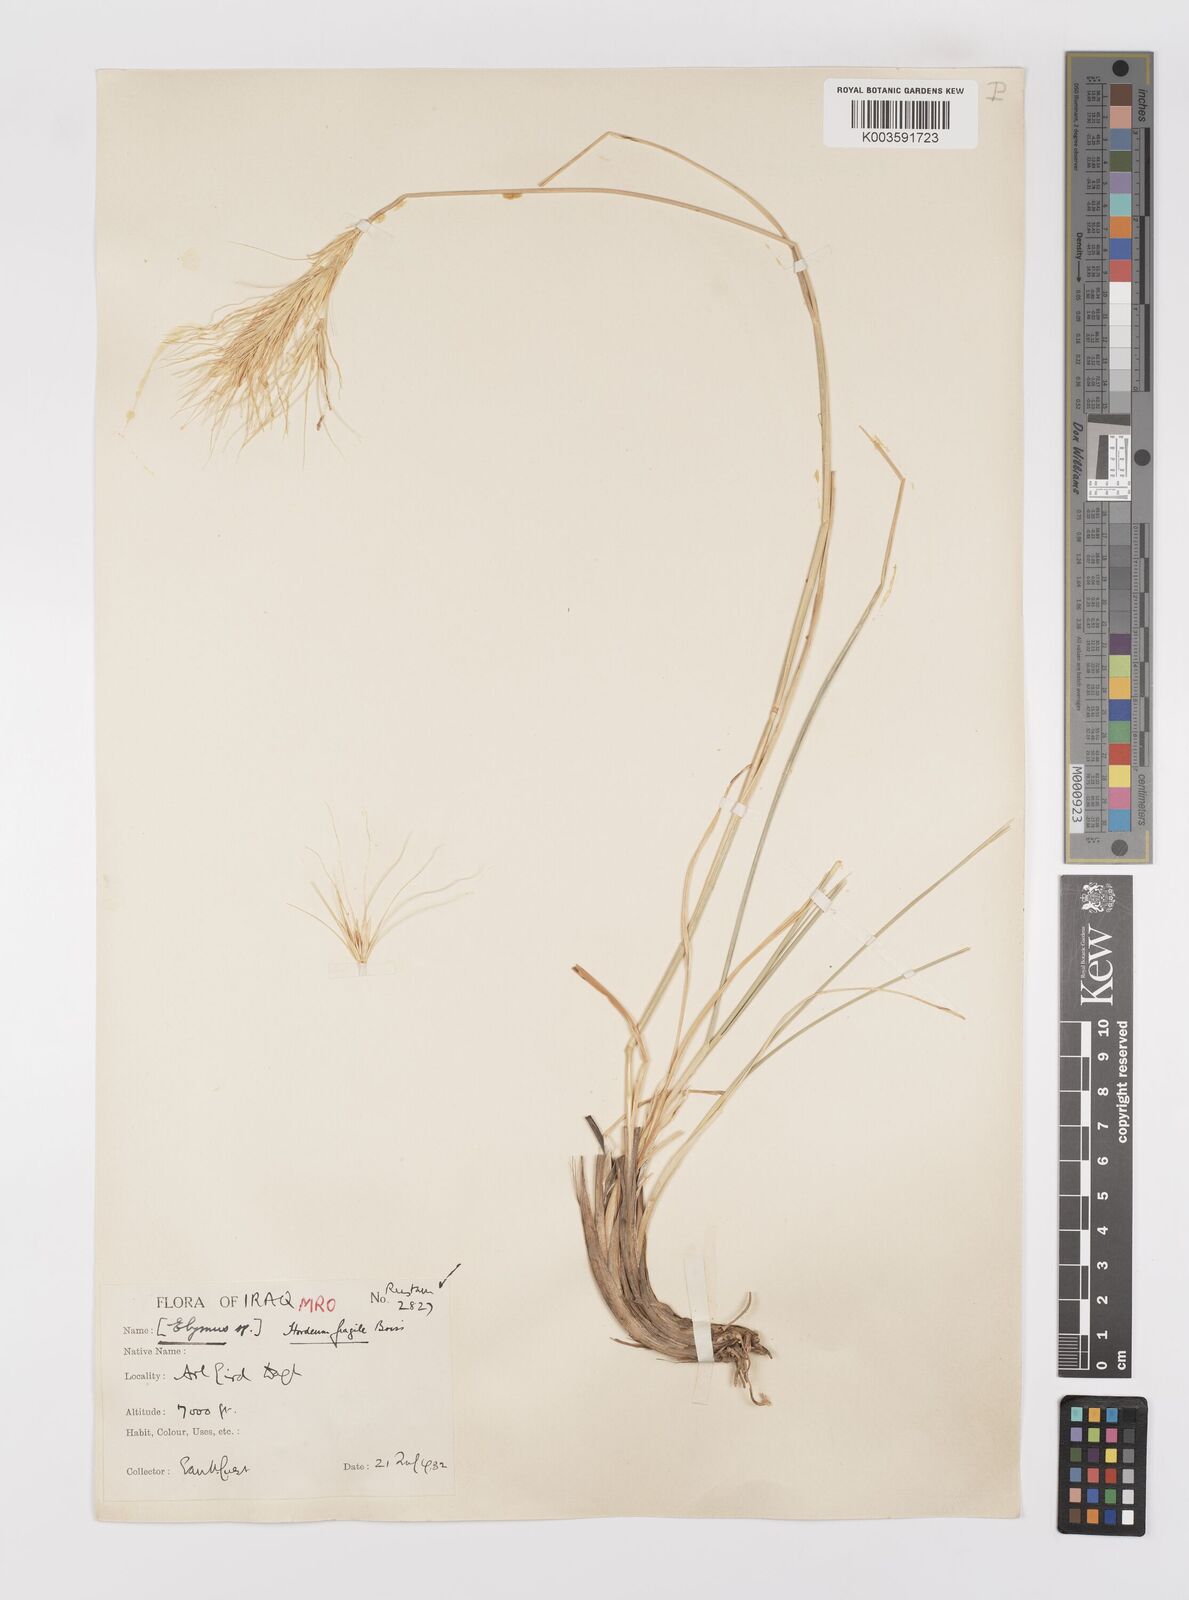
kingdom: Plantae
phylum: Tracheophyta
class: Liliopsida
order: Poales
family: Poaceae
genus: Psathyrostachys
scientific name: Psathyrostachys fragilis
